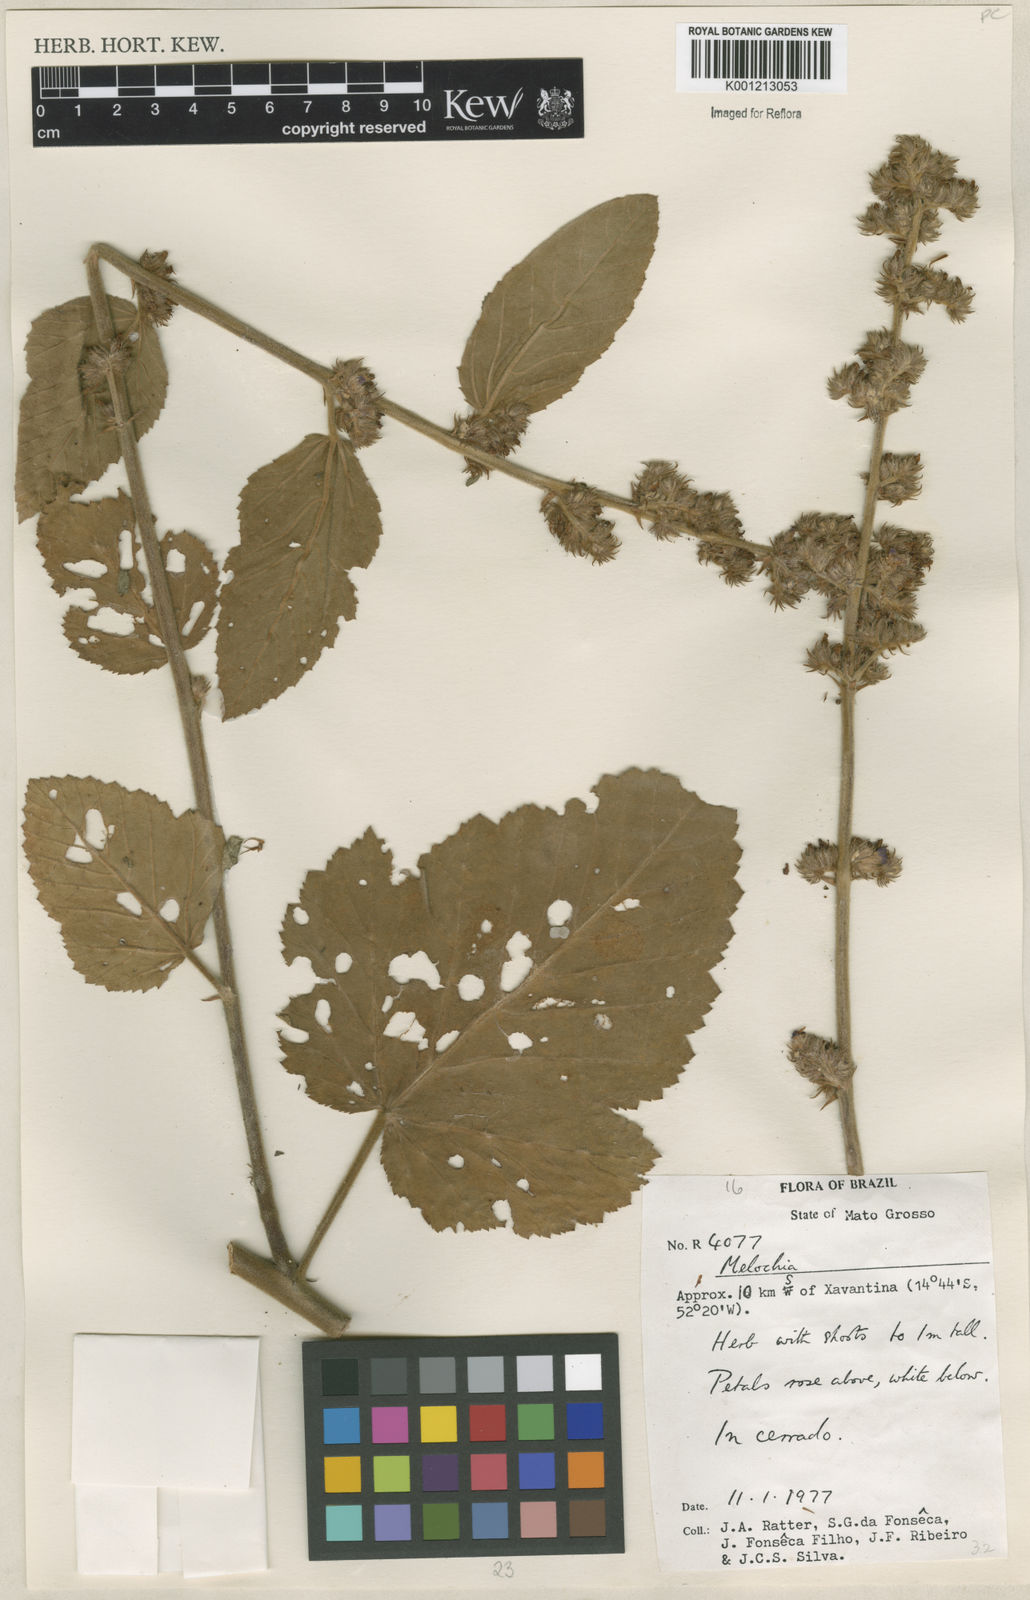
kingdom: Plantae
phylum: Tracheophyta
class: Magnoliopsida
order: Malvales
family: Malvaceae
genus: Melochia
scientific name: Melochia
